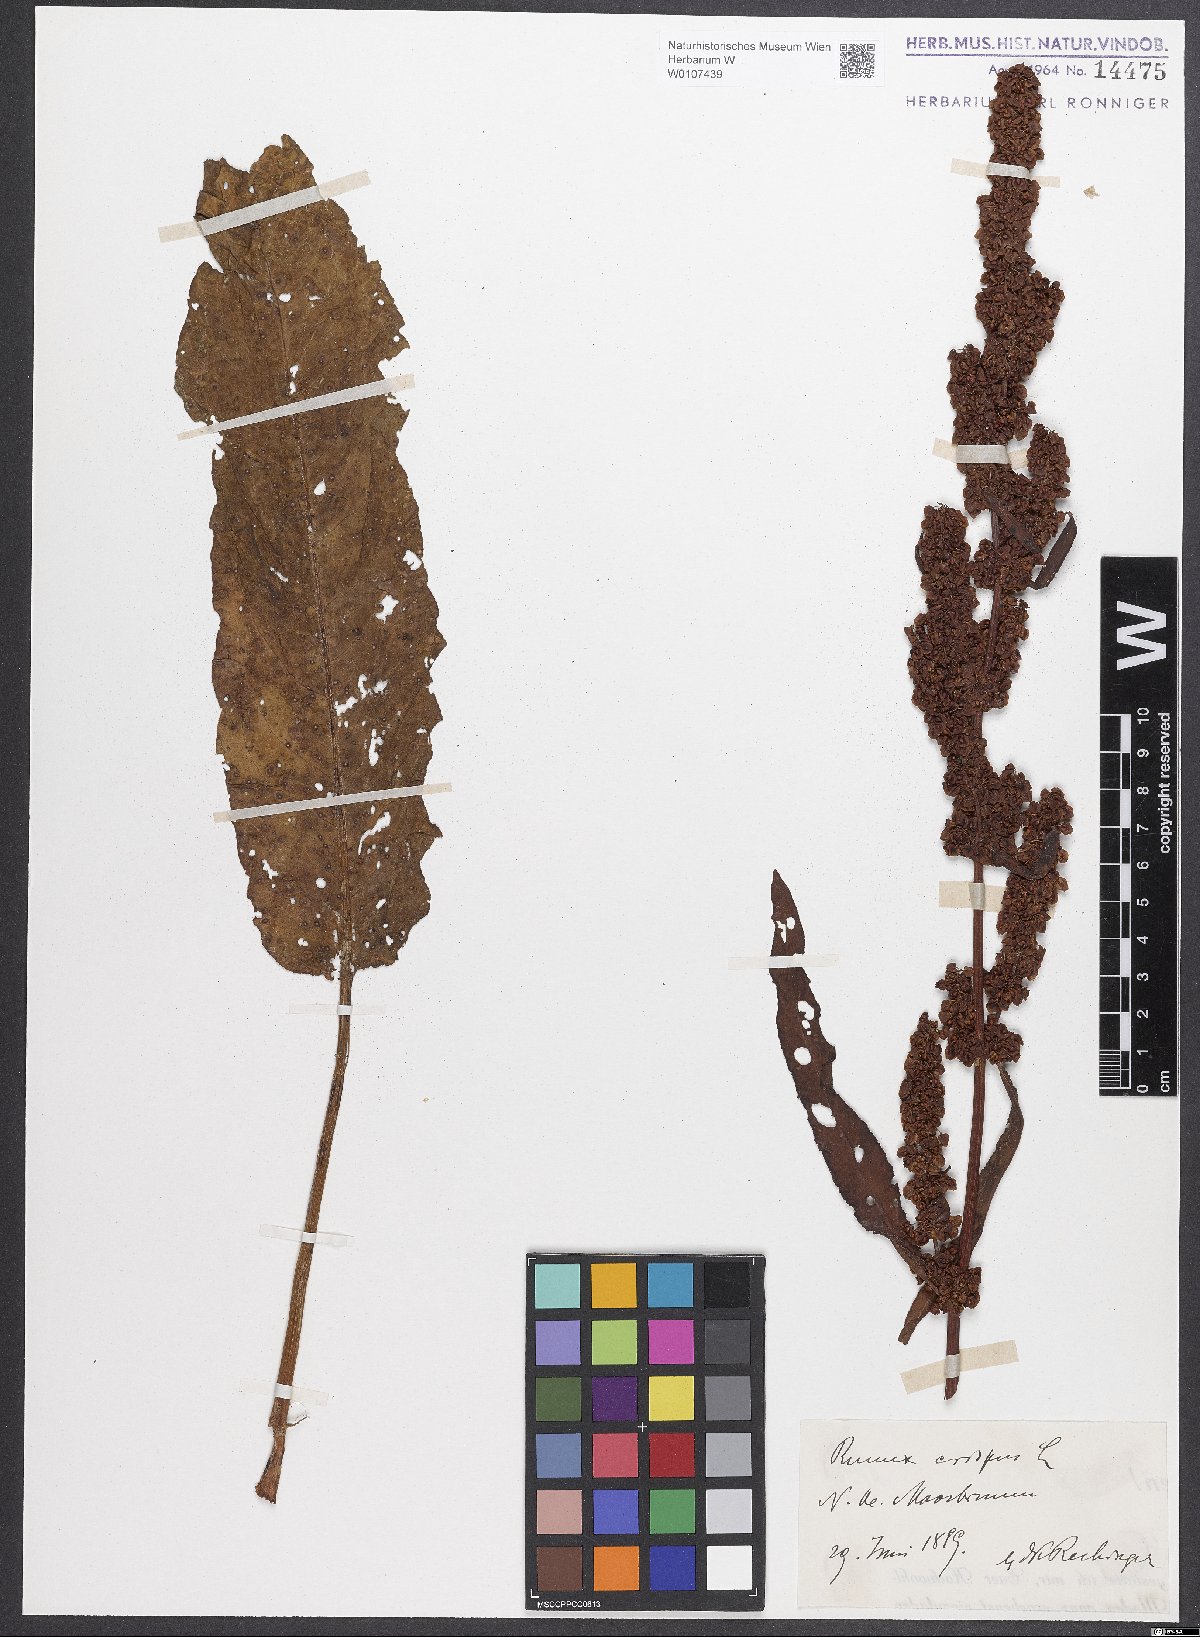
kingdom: Plantae
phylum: Tracheophyta
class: Magnoliopsida
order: Caryophyllales
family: Polygonaceae
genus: Rumex
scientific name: Rumex crispus
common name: Curled dock
